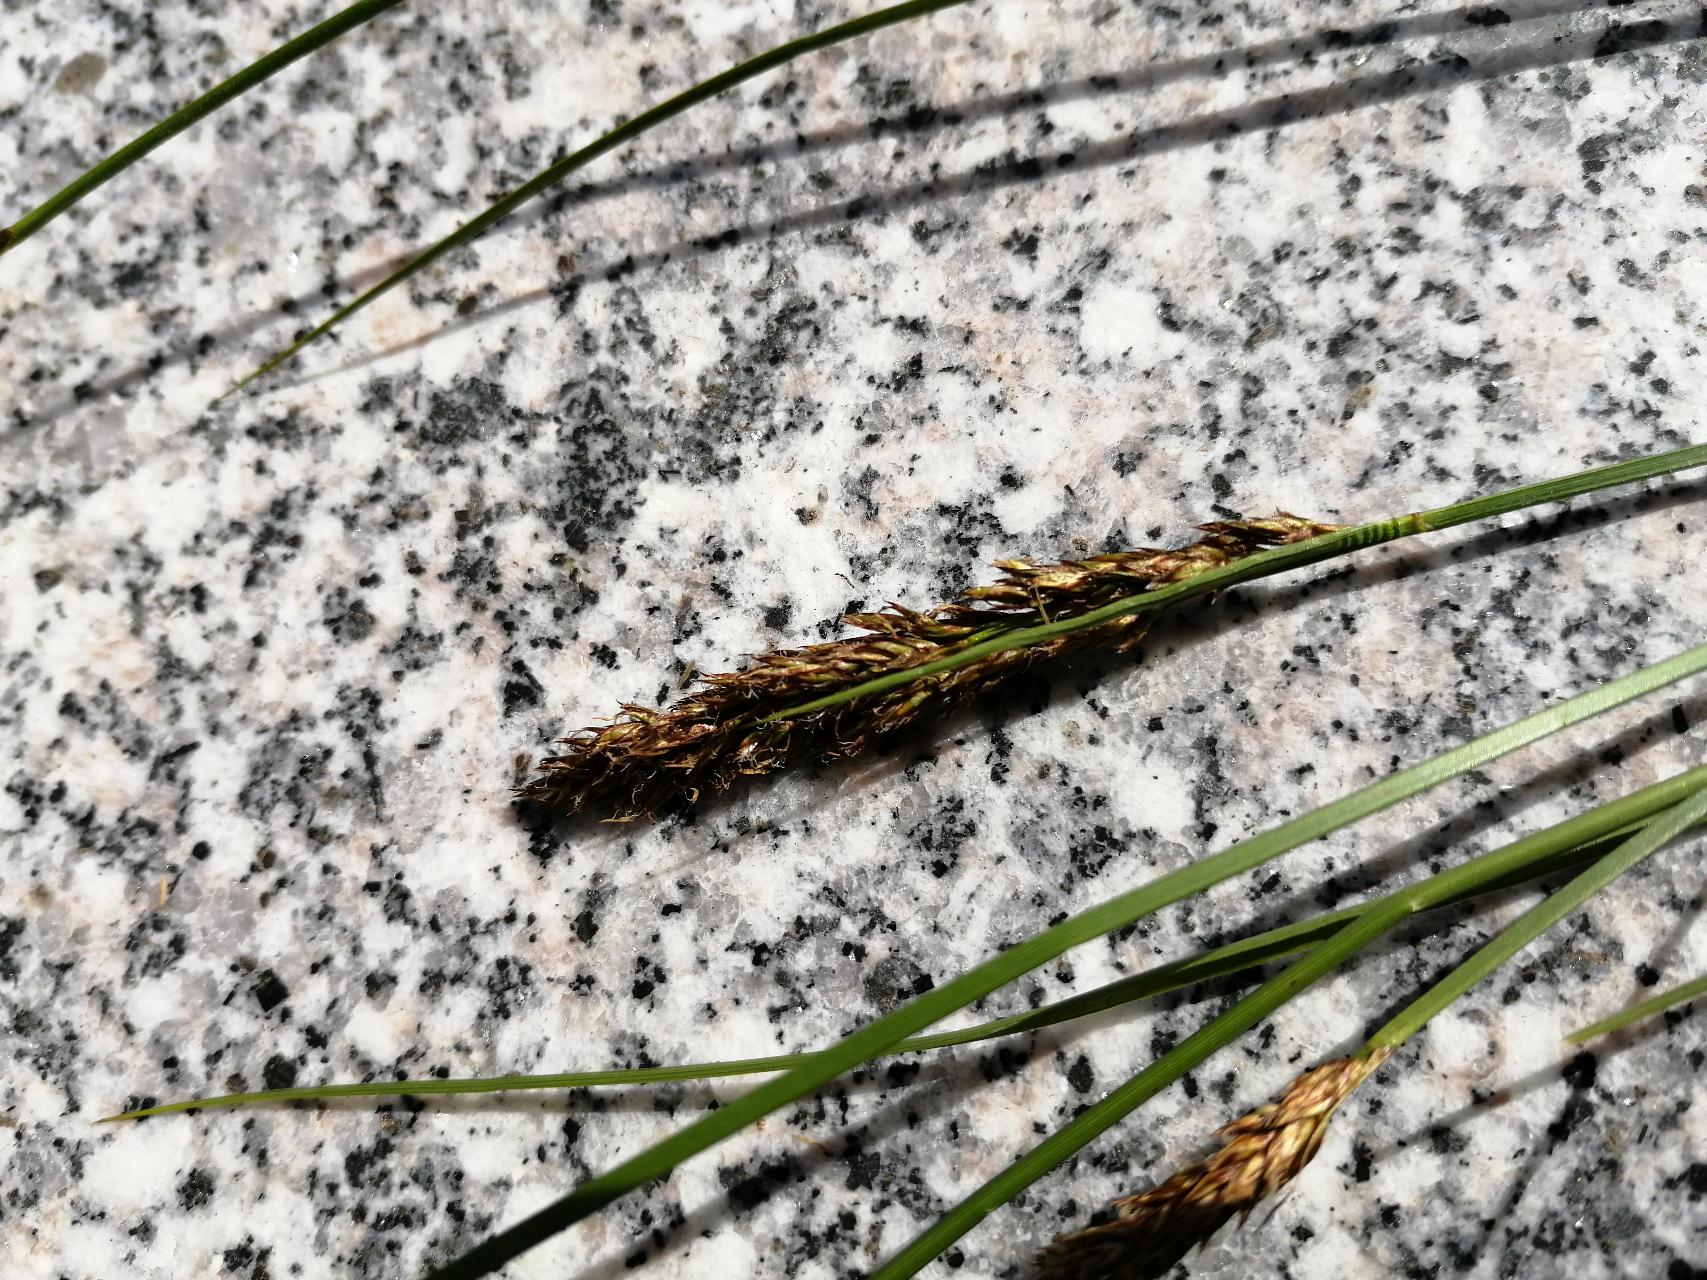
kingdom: Plantae
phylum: Tracheophyta
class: Liliopsida
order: Poales
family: Cyperaceae
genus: Carex
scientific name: Carex appropinquata
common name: Langakset star
